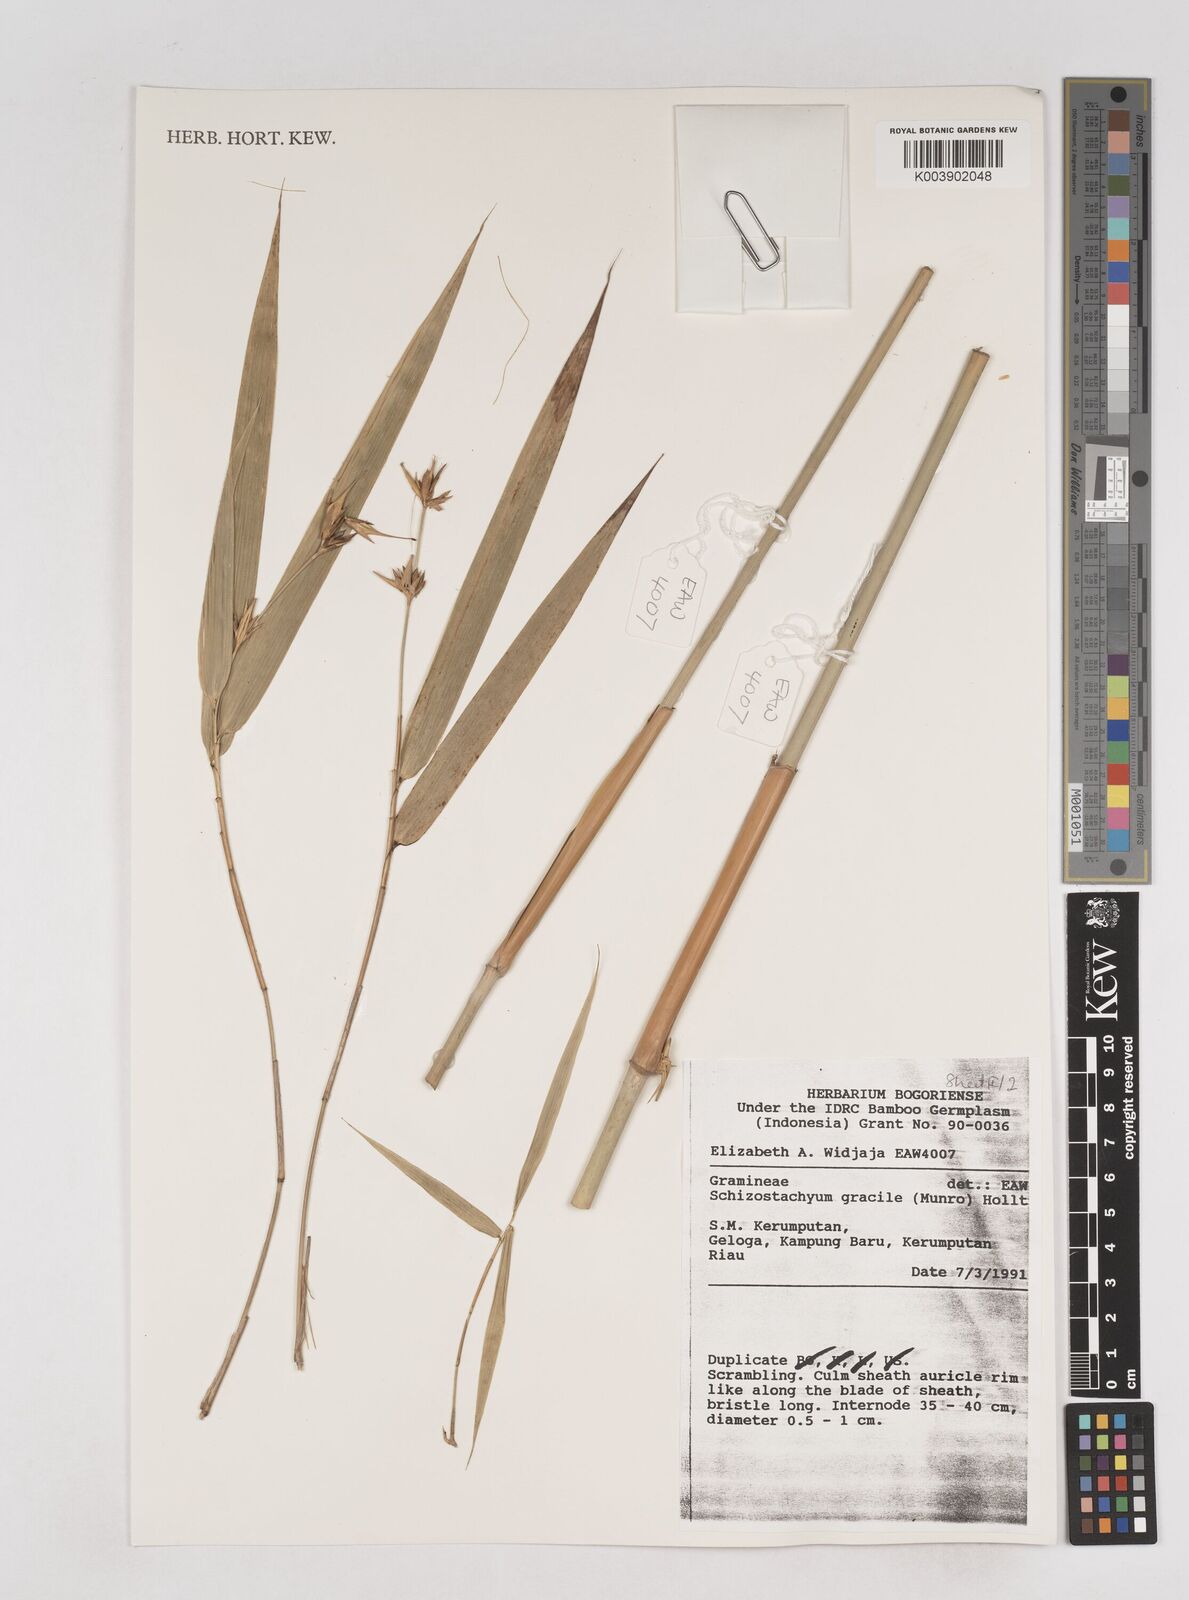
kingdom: Plantae
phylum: Tracheophyta
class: Liliopsida
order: Poales
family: Poaceae
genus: Schizostachyum
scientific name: Schizostachyum gracile
